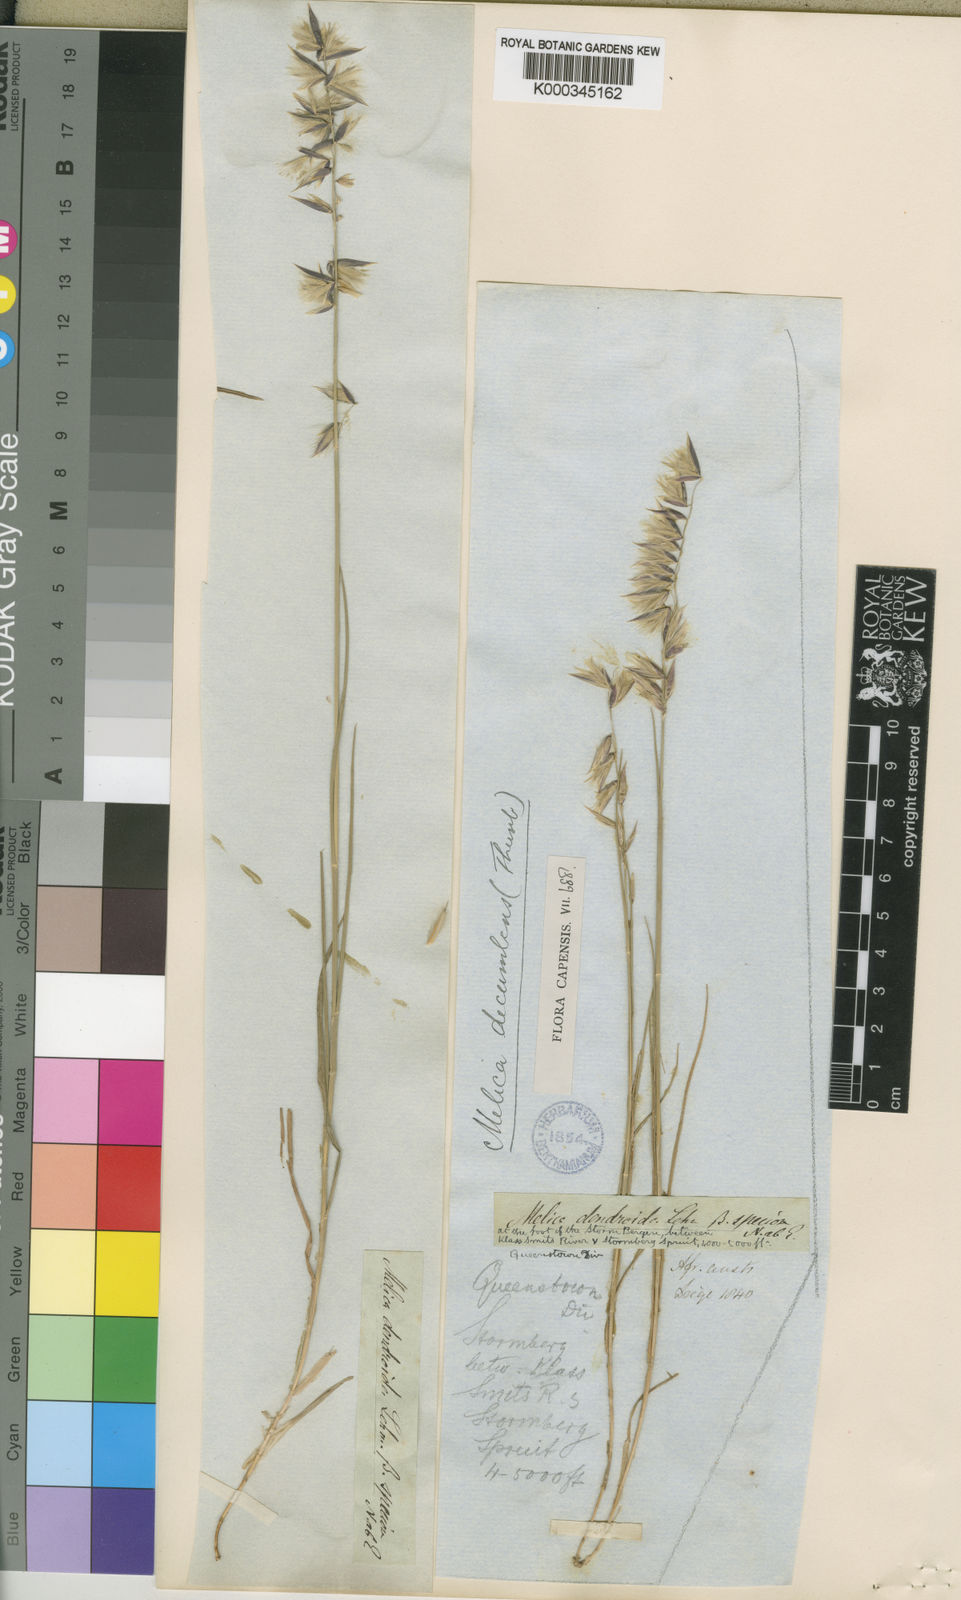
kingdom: Plantae
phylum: Tracheophyta
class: Liliopsida
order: Poales
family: Poaceae
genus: Melica
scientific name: Melica dendroides
